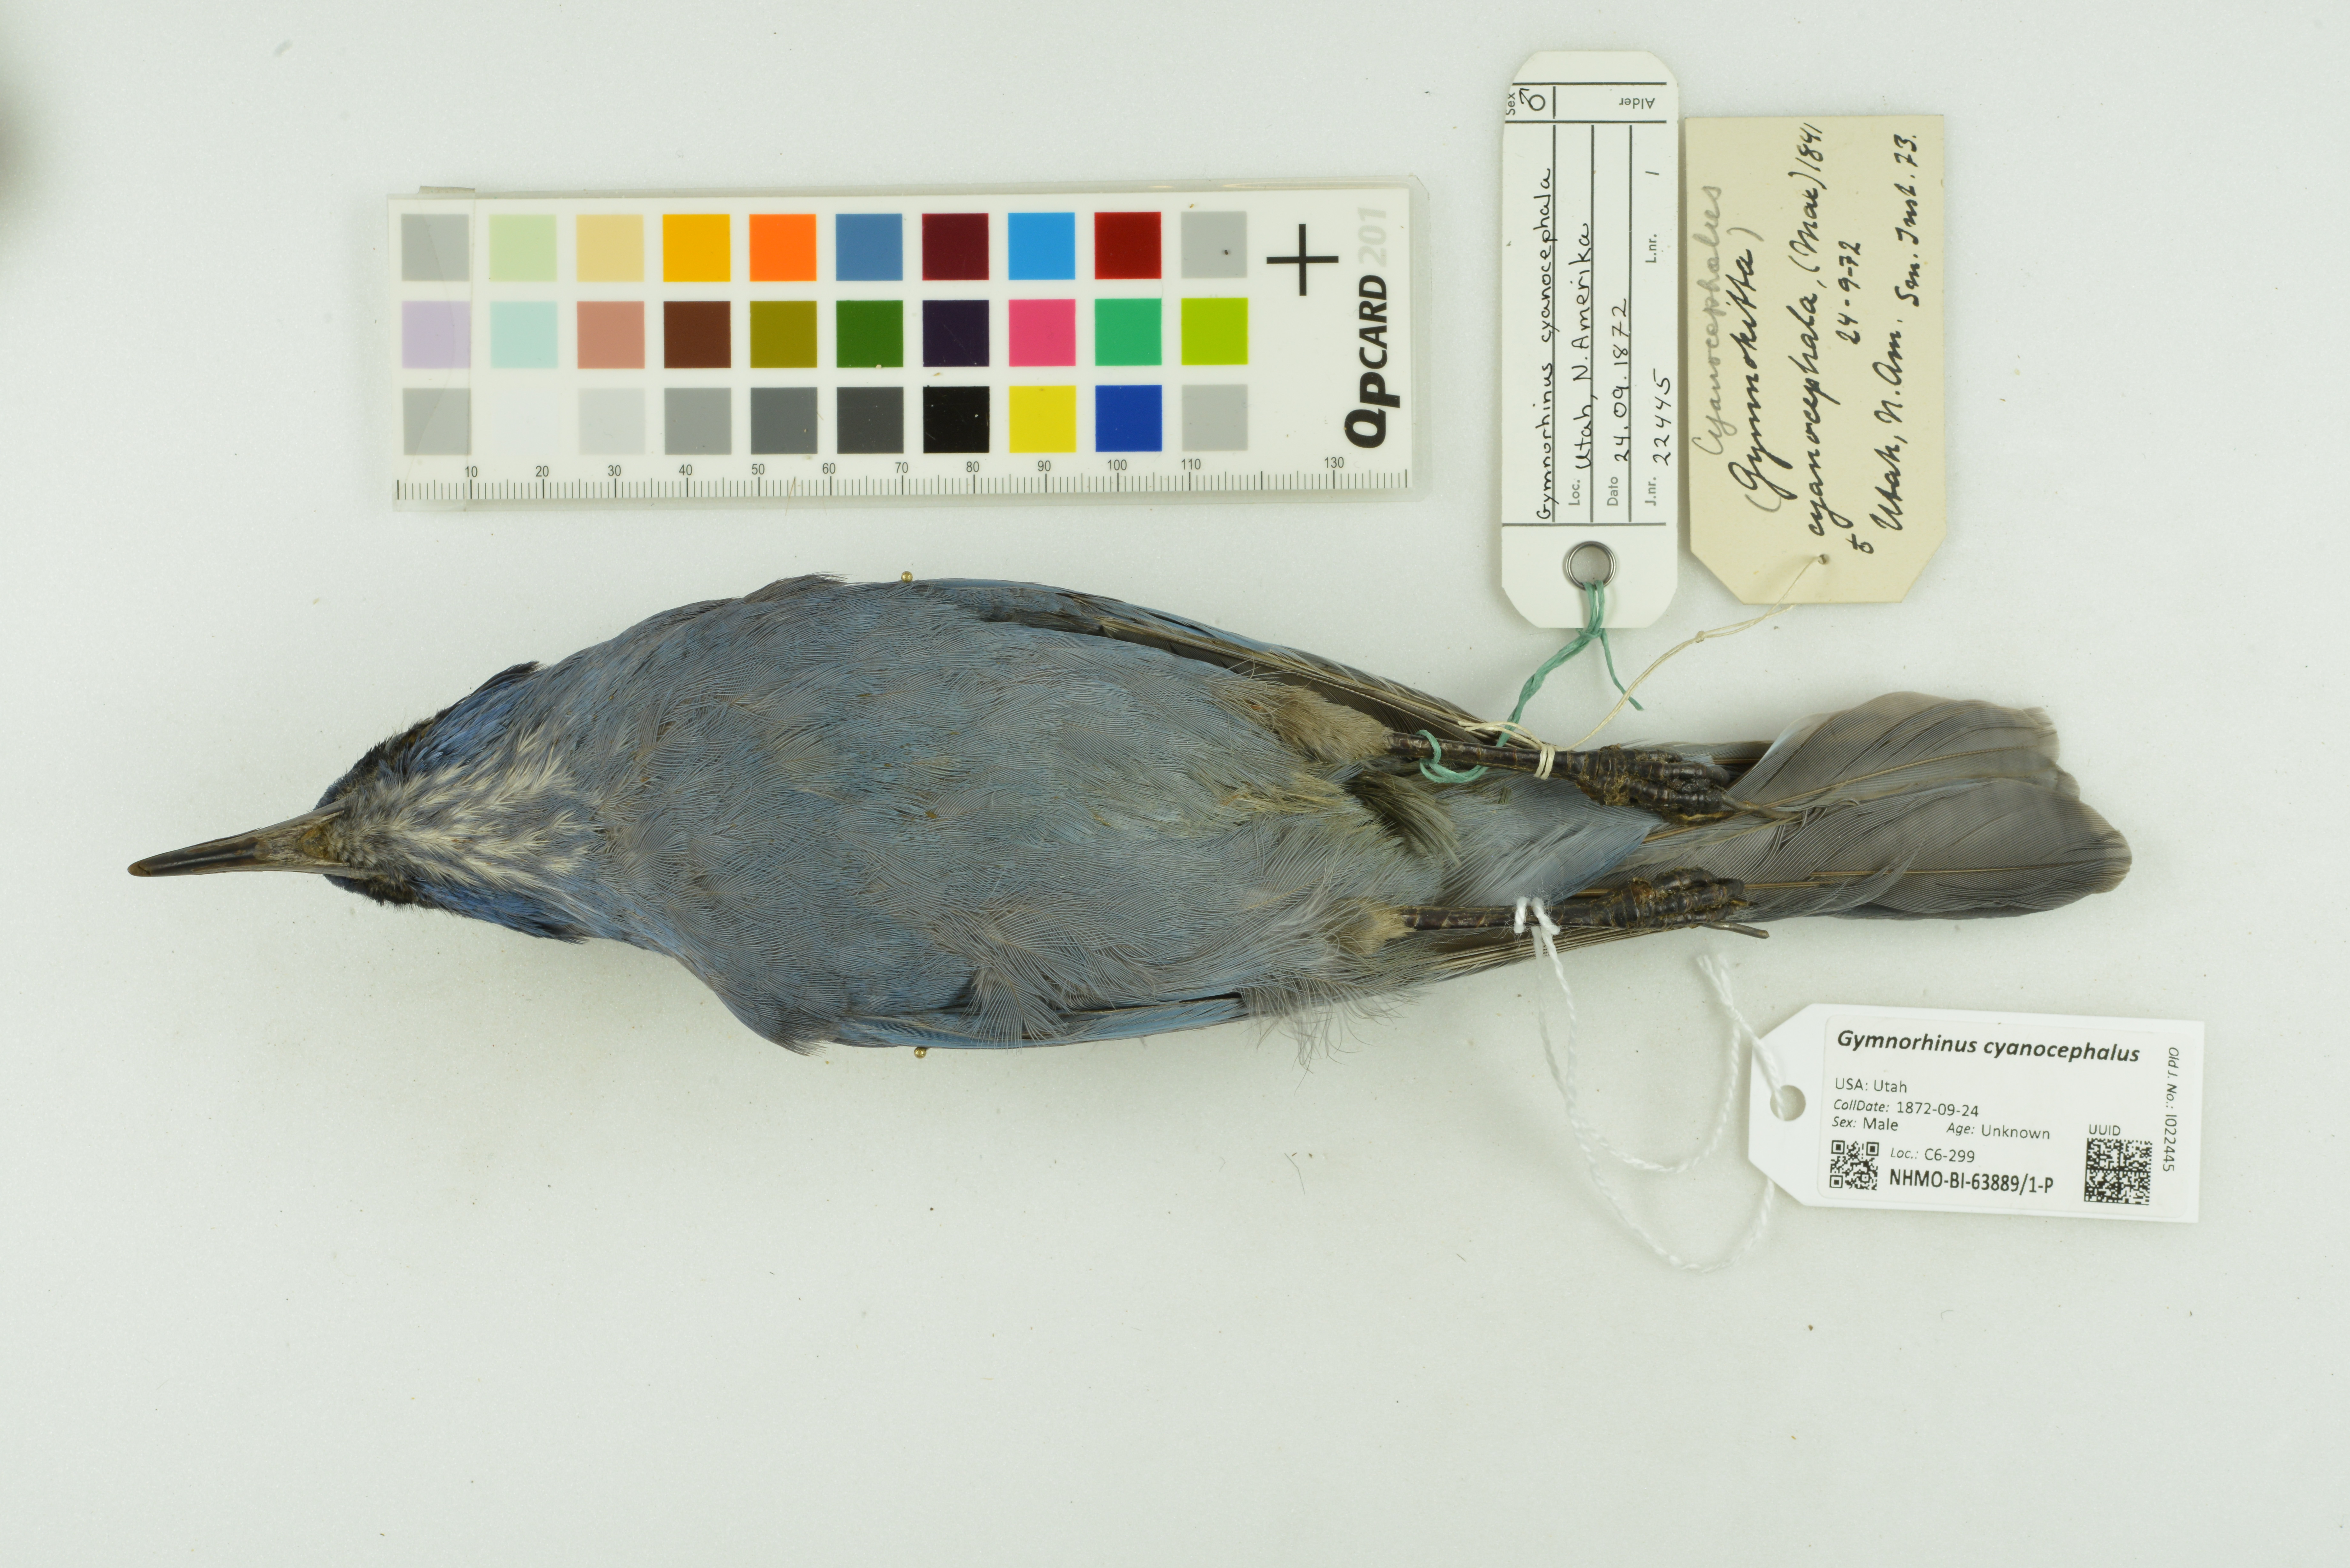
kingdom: Animalia
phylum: Chordata
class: Aves
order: Passeriformes
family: Corvidae
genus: Gymnorhinus
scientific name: Gymnorhinus cyanocephalus
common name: Pinyon jay
